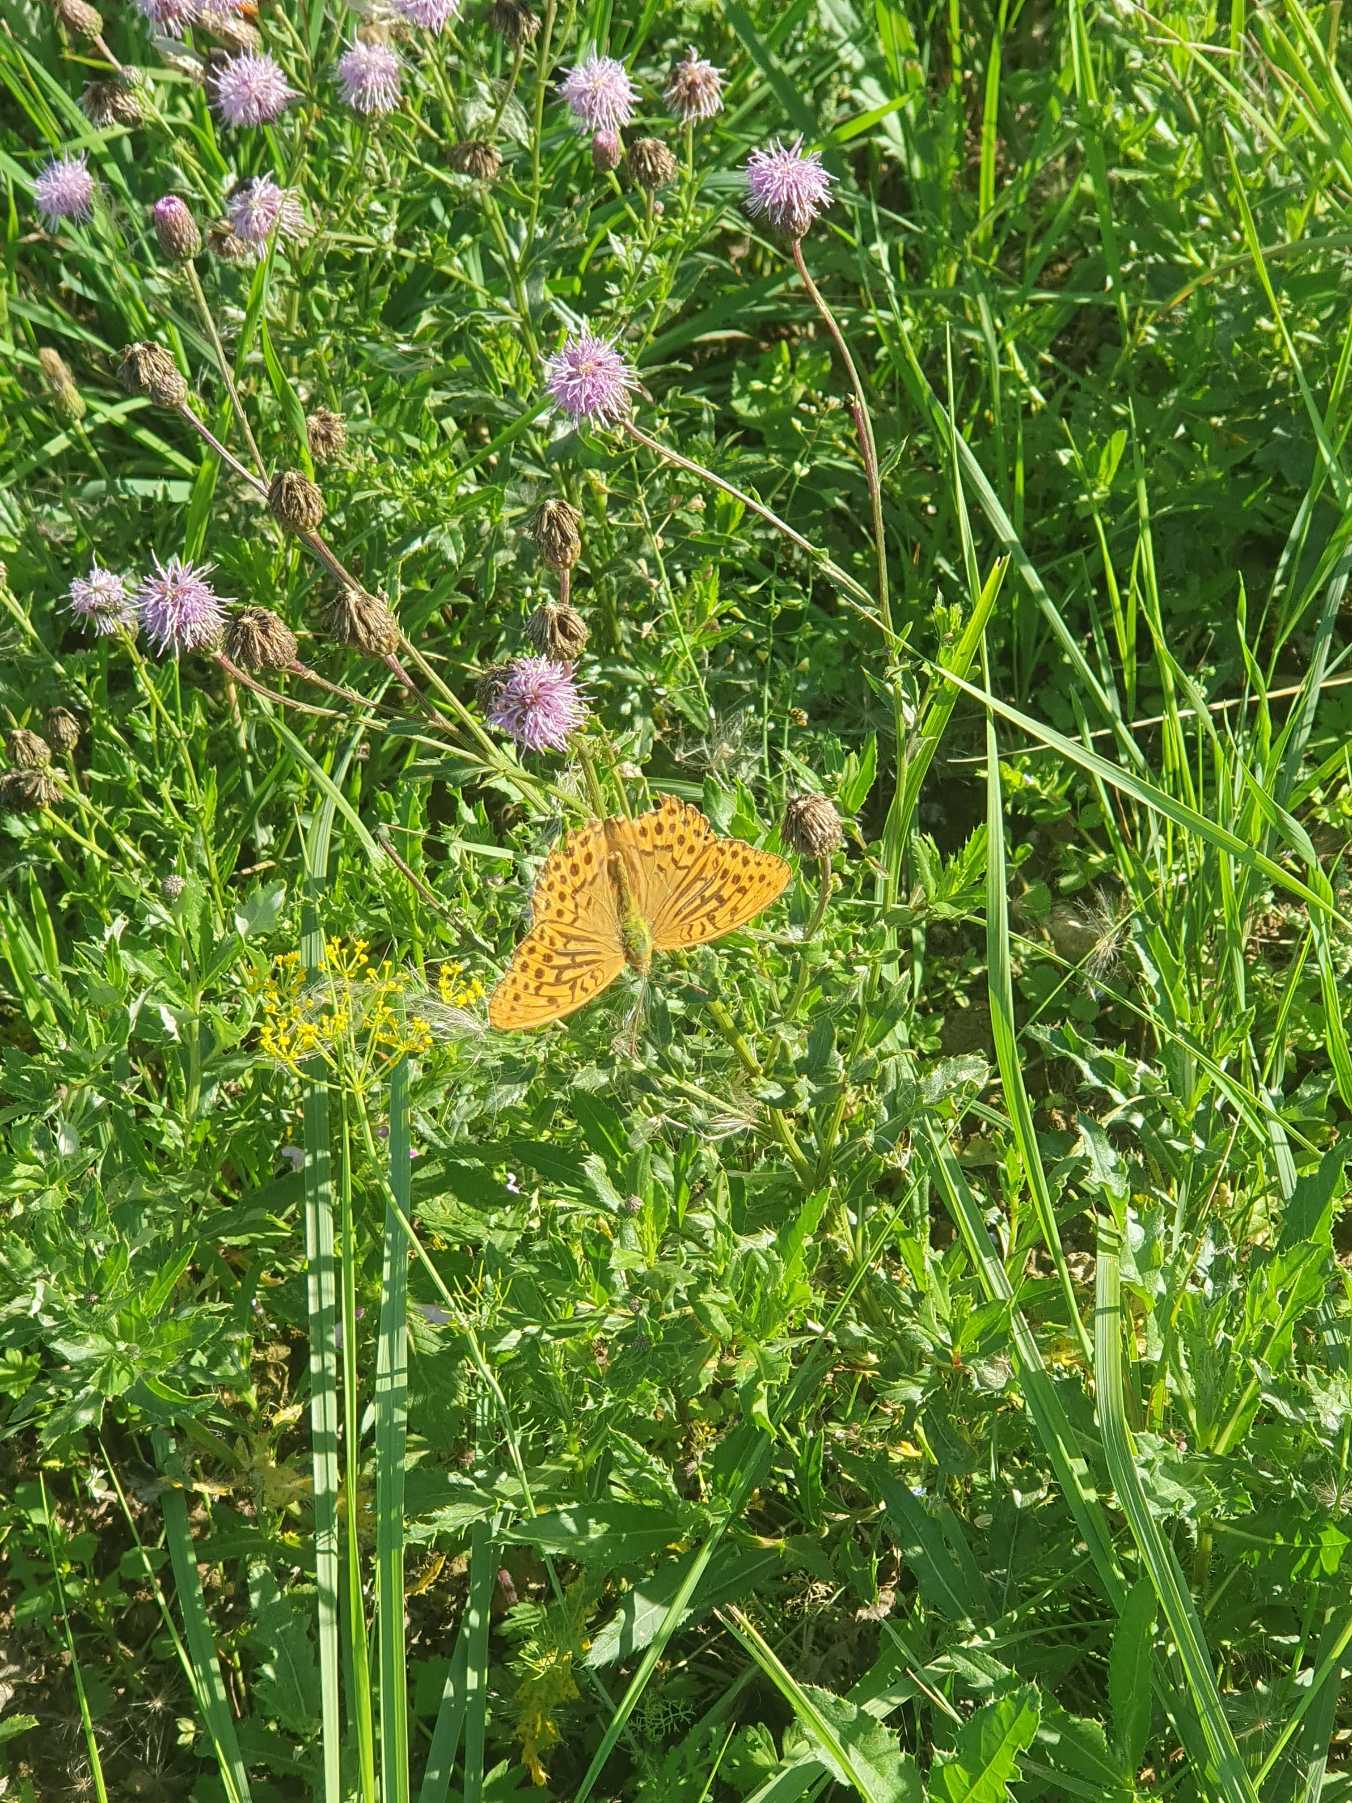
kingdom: Animalia
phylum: Arthropoda
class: Insecta
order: Lepidoptera
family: Nymphalidae
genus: Argynnis
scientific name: Argynnis paphia
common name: Kejserkåbe
